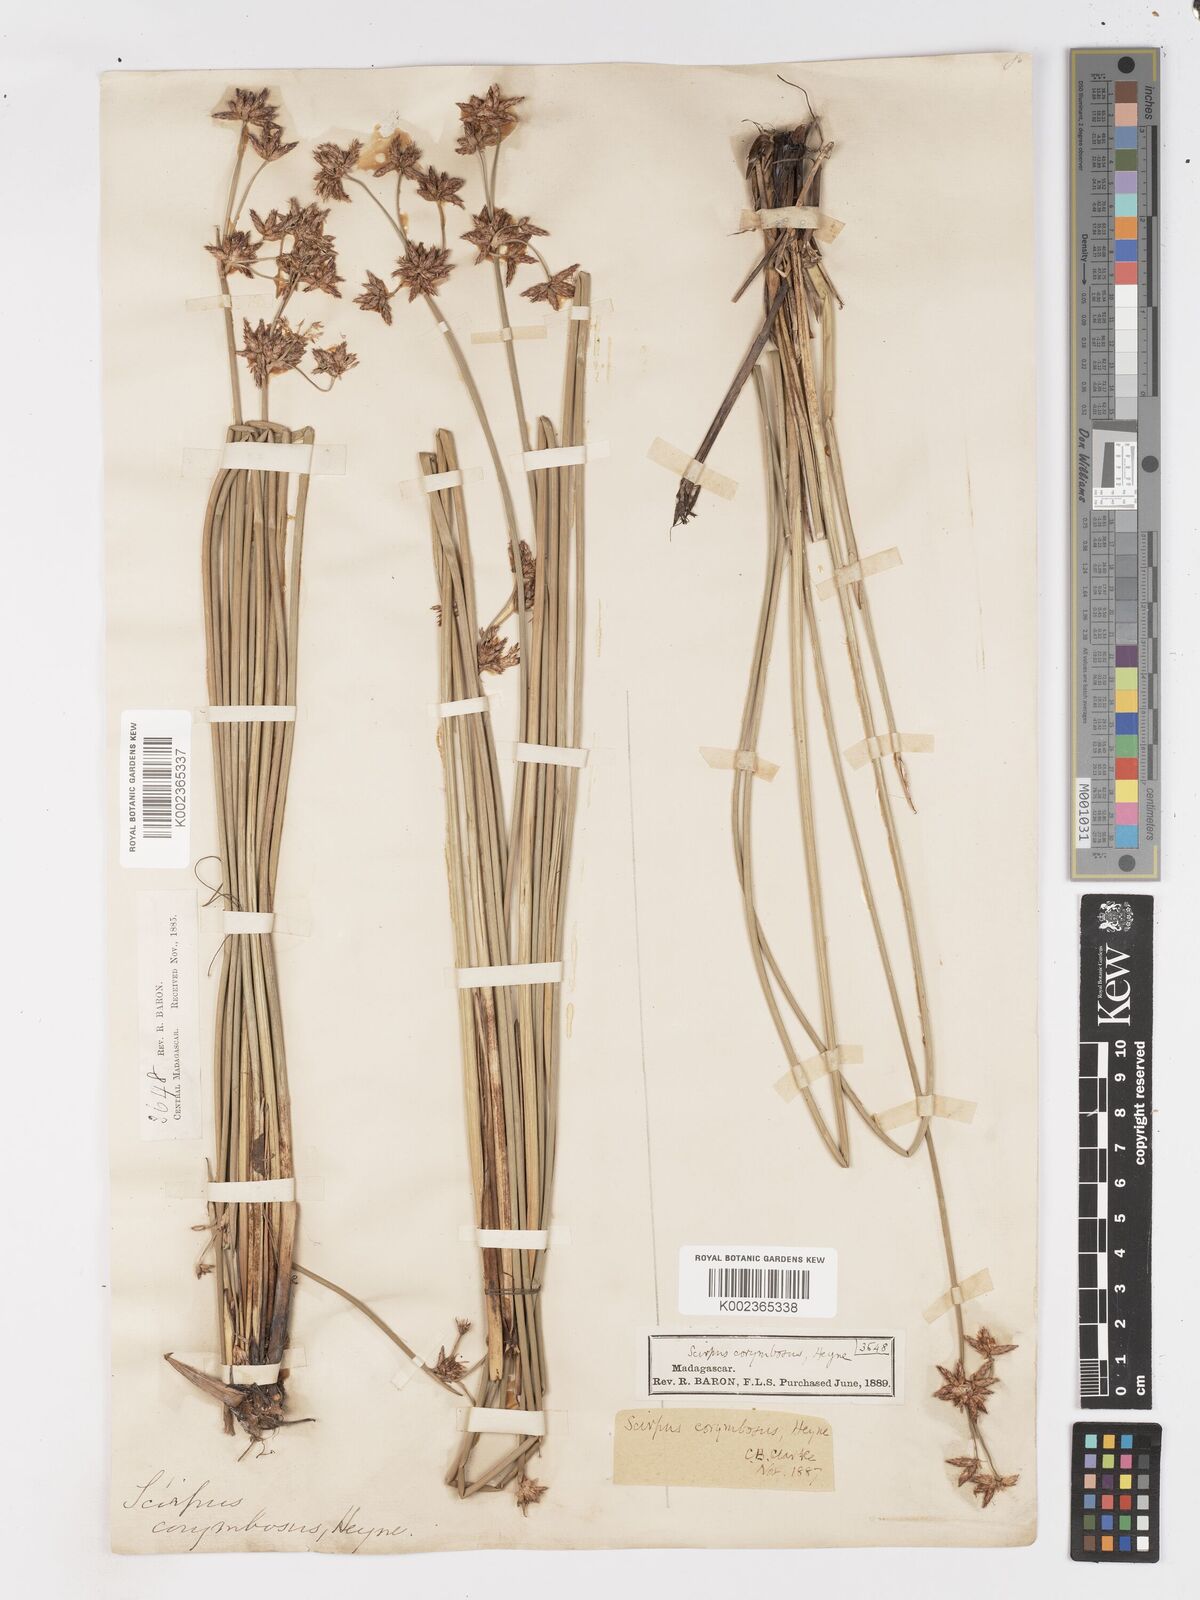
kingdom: Plantae
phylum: Tracheophyta
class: Liliopsida
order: Poales
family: Cyperaceae
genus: Schoenoplectiella
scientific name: Schoenoplectiella corymbosa
